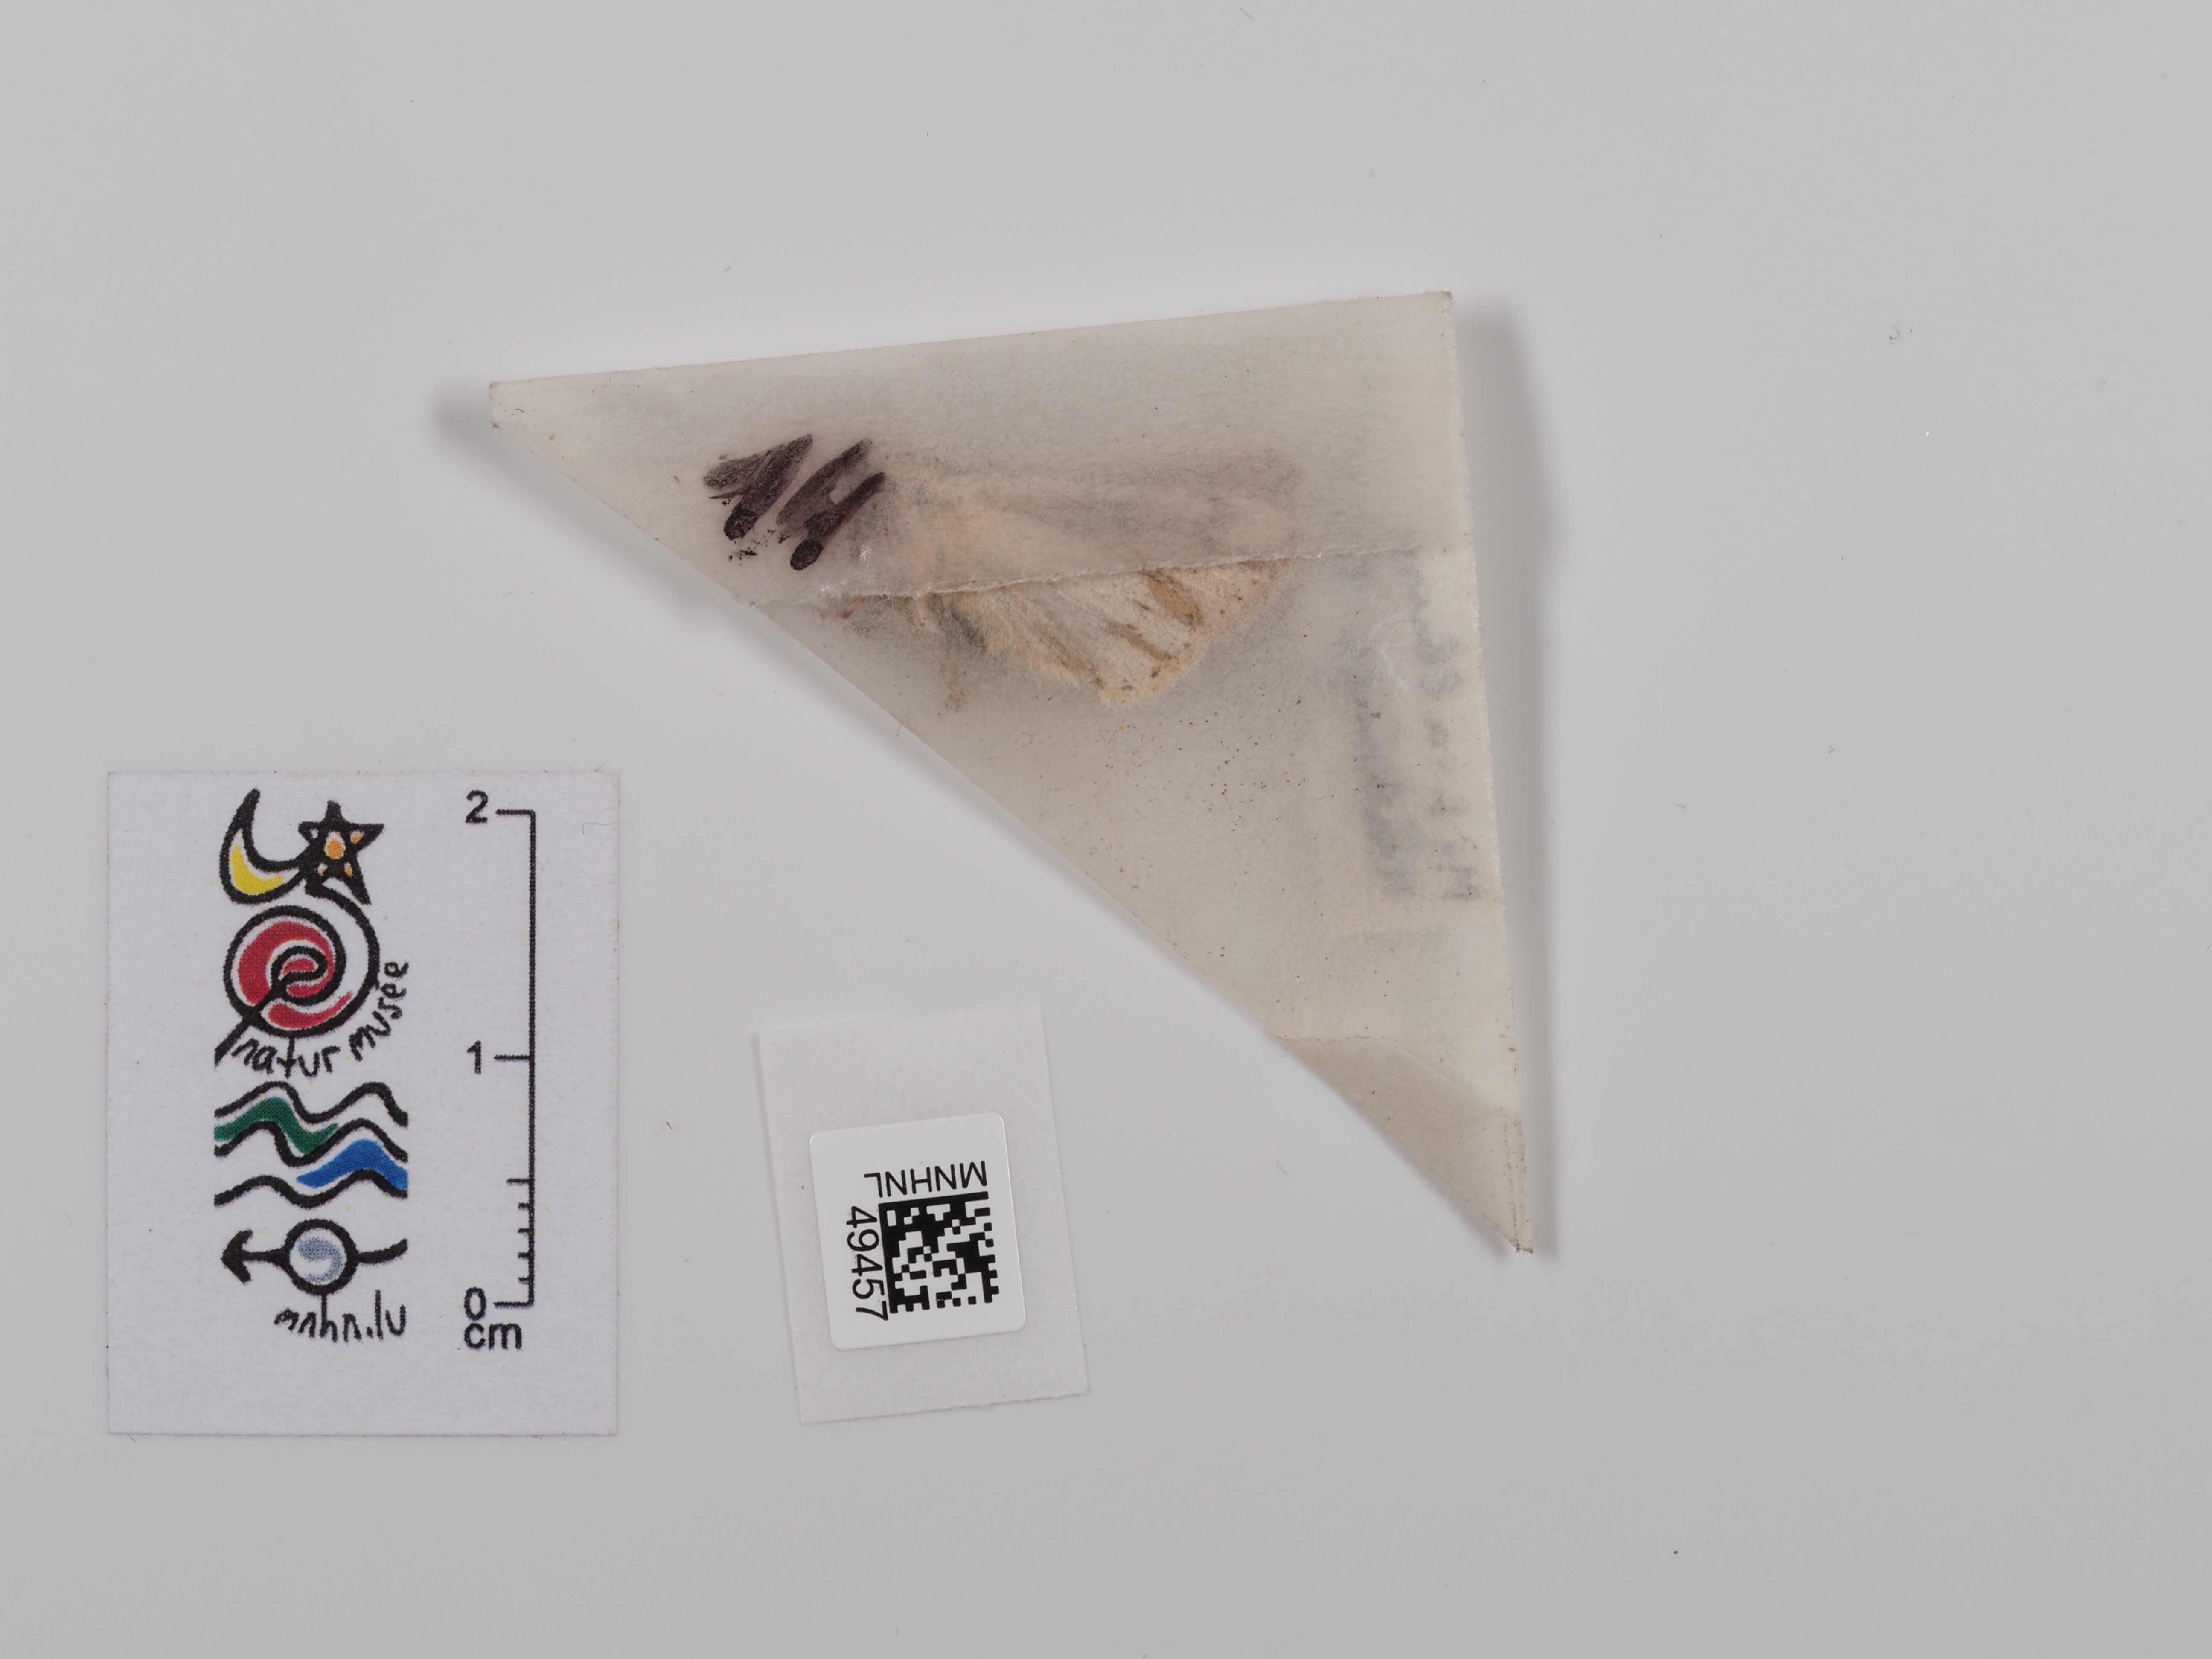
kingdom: Animalia
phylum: Arthropoda
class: Insecta
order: Lepidoptera
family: Noctuidae
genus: Mythimna
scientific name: Mythimna l-album
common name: L-album wainscot
